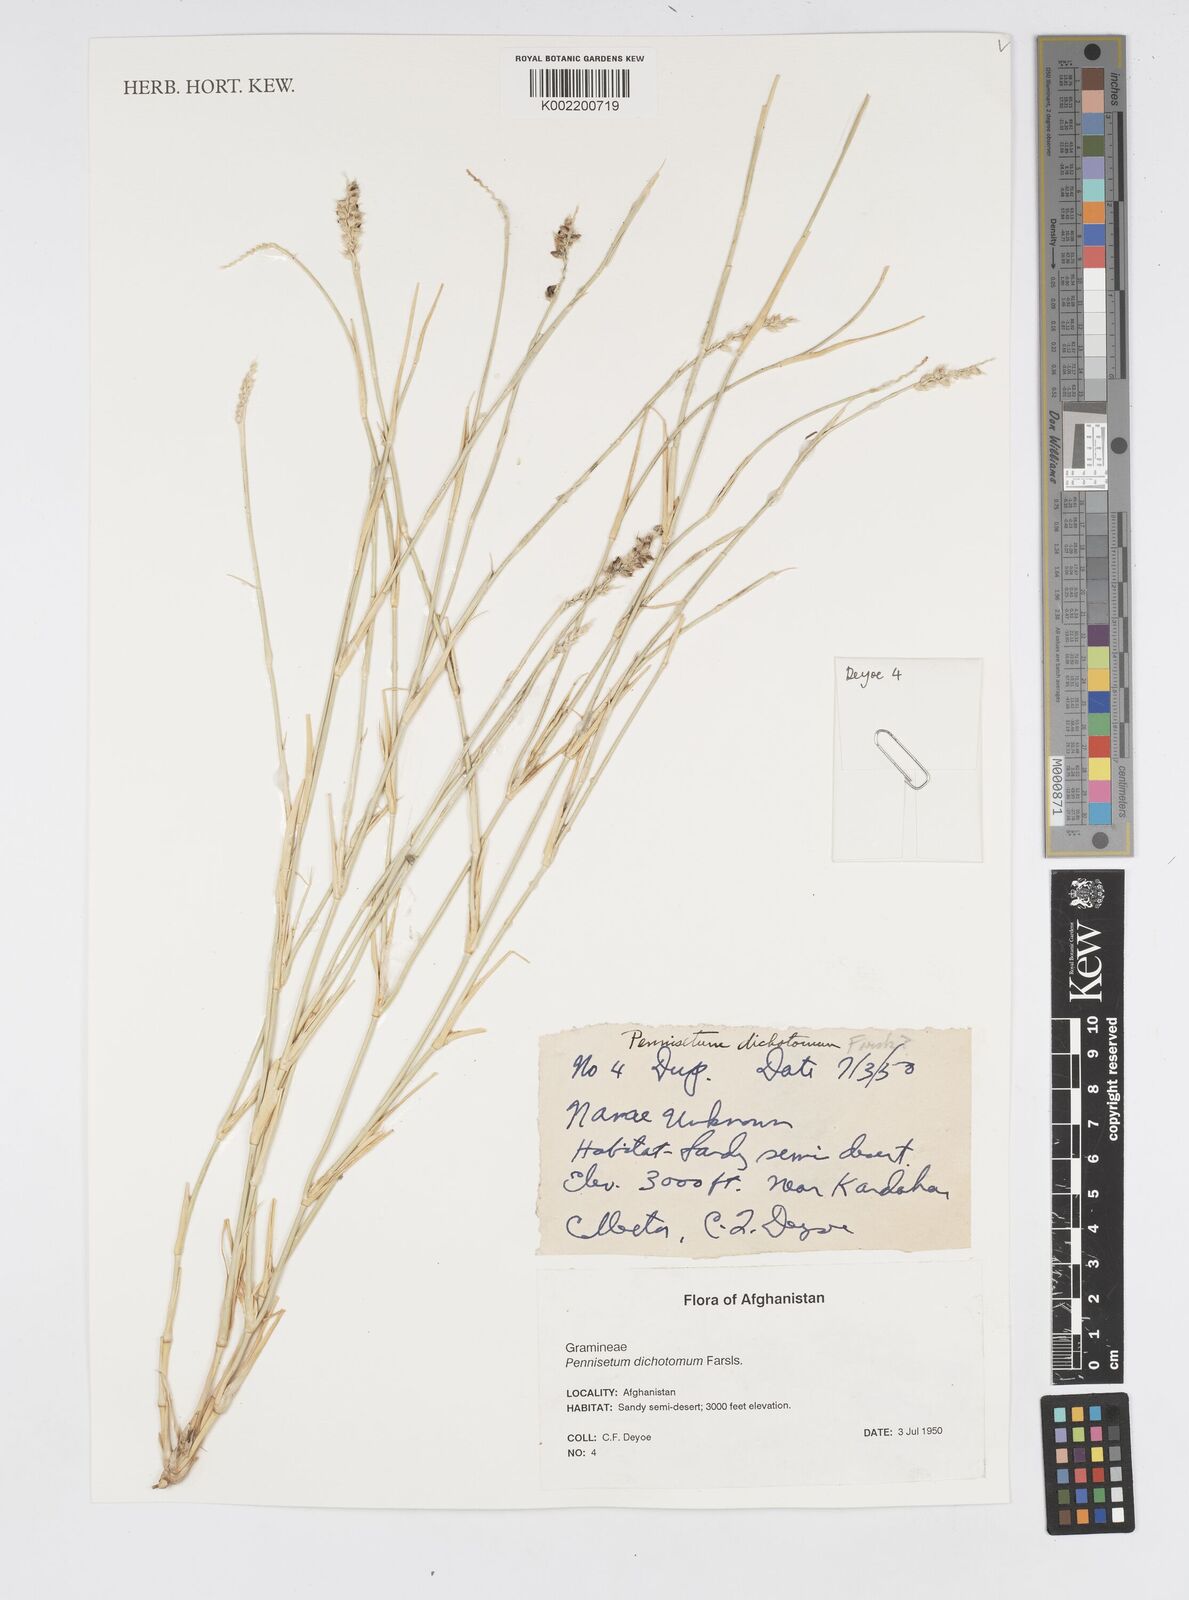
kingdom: Plantae
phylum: Tracheophyta
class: Liliopsida
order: Poales
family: Poaceae
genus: Cenchrus
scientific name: Cenchrus divisus
